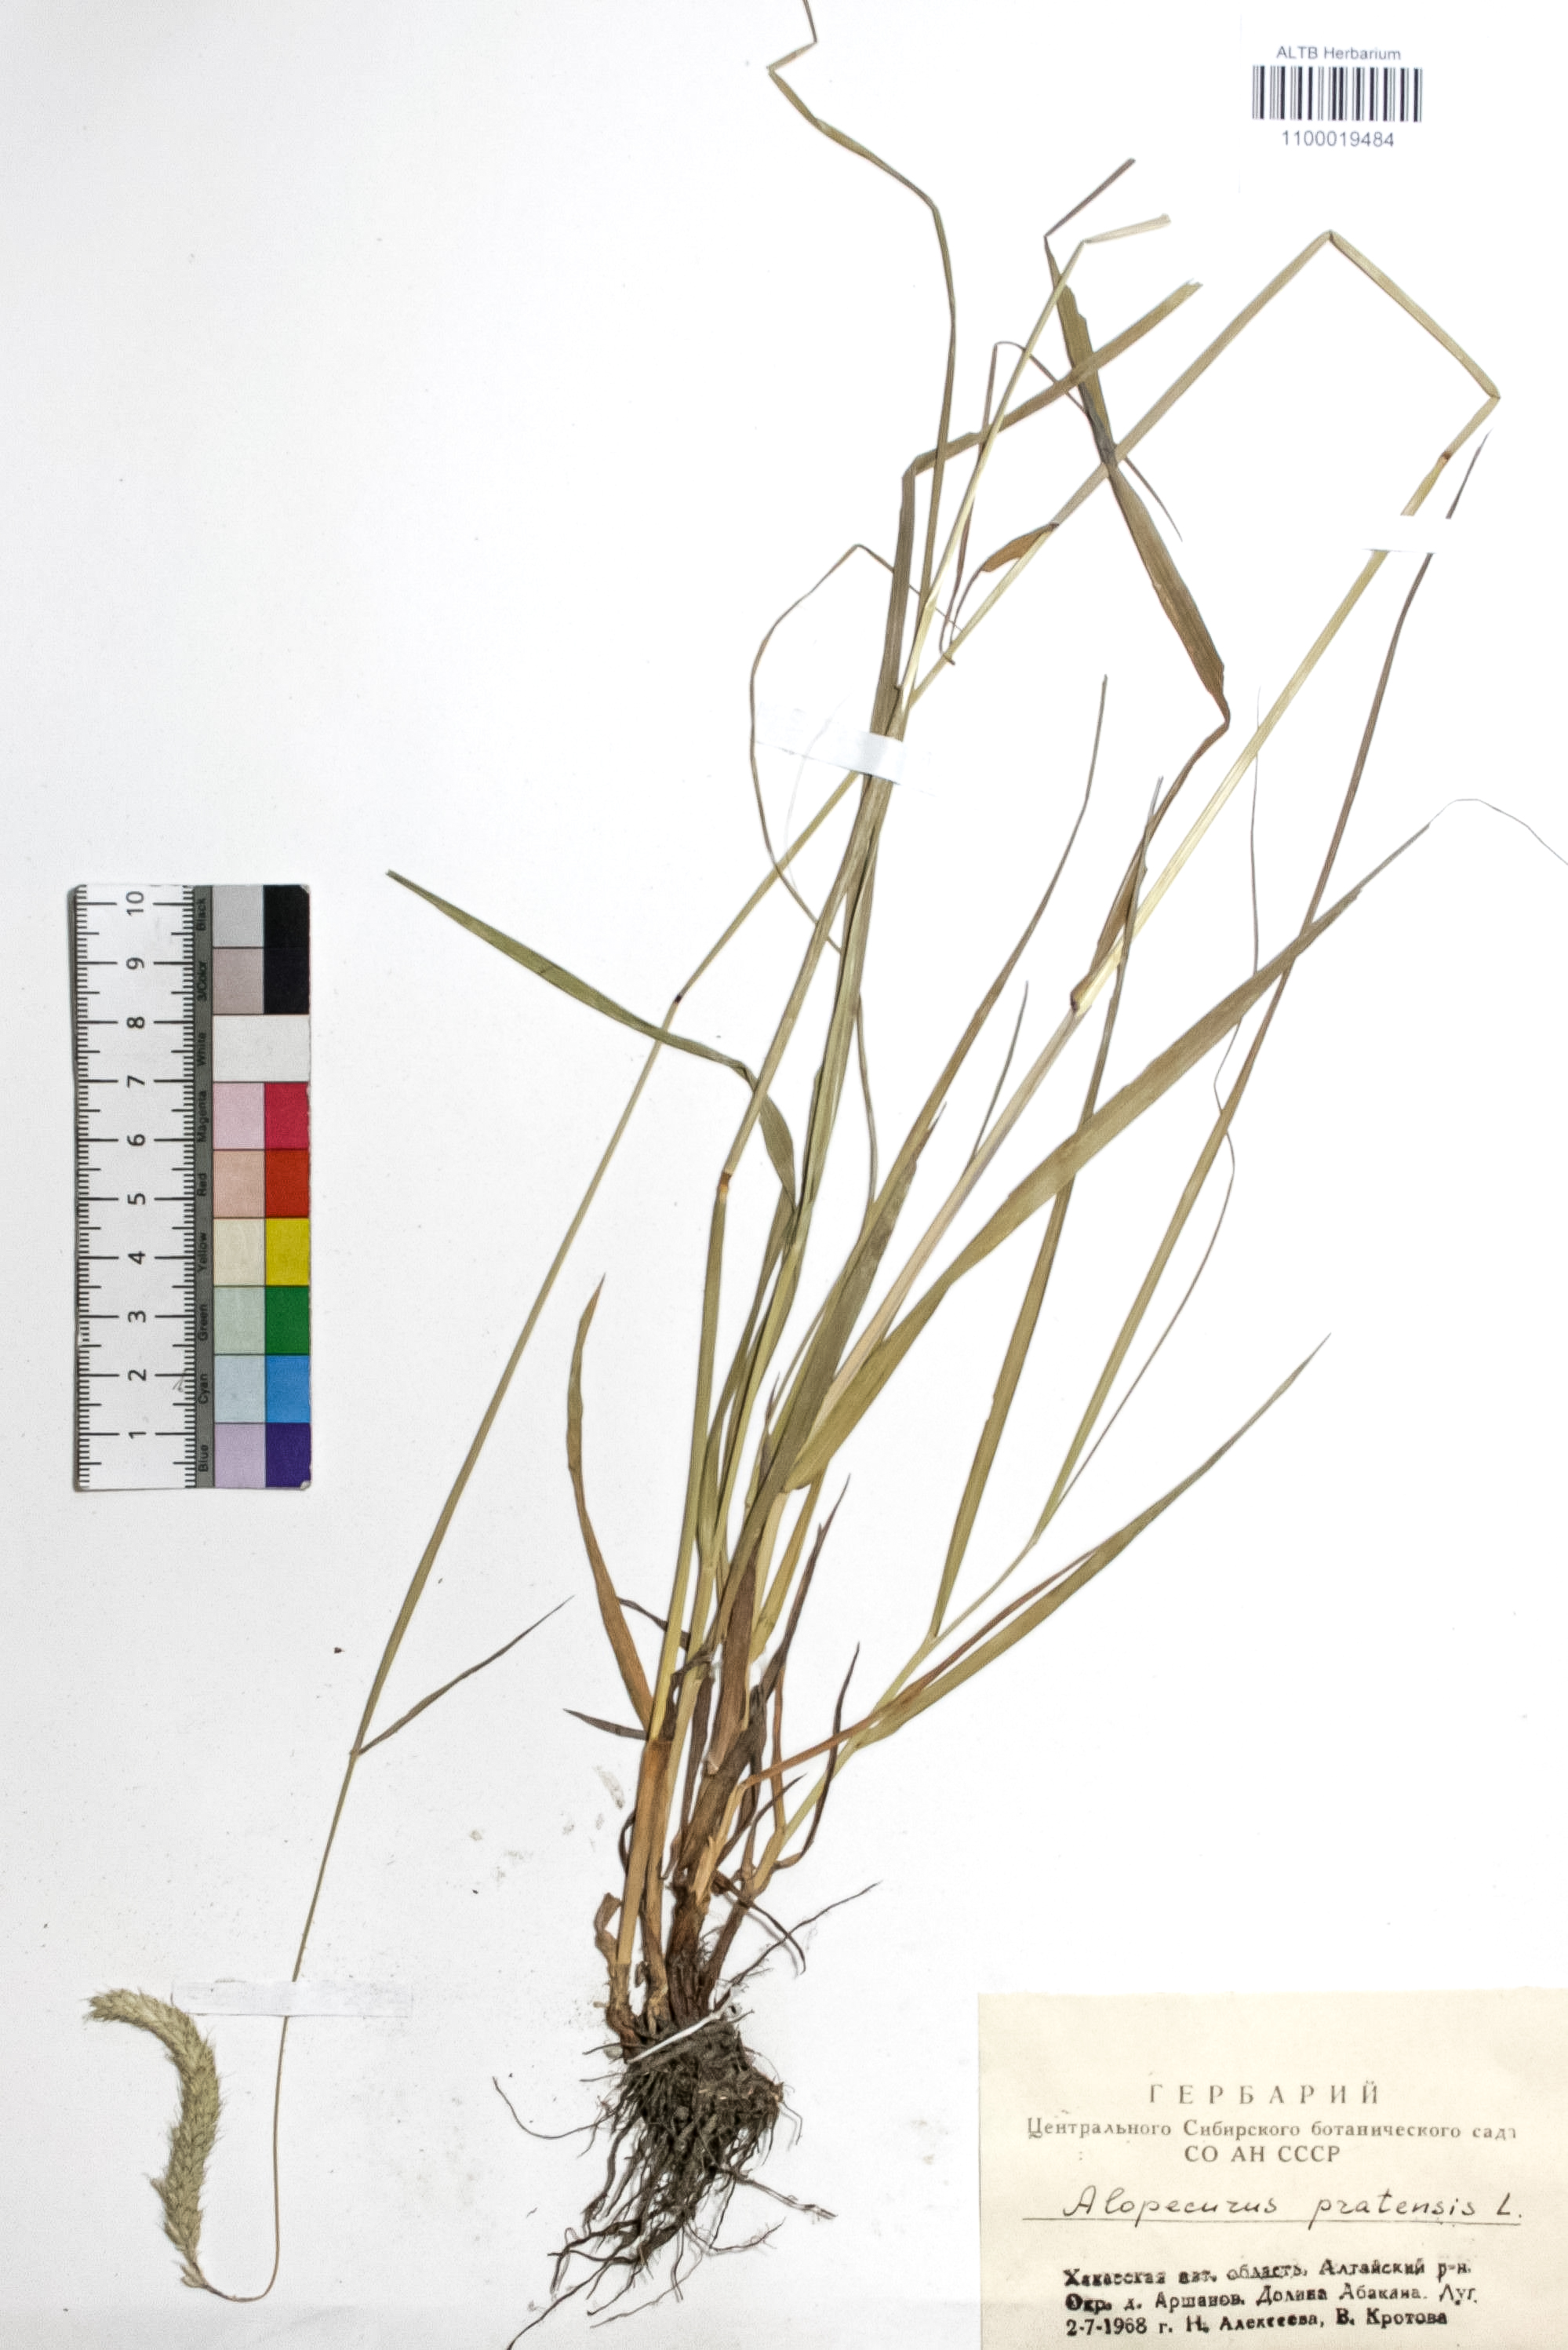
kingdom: Plantae
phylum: Tracheophyta
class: Liliopsida
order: Poales
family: Poaceae
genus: Alopecurus
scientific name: Alopecurus pratensis
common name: Meadow foxtail
